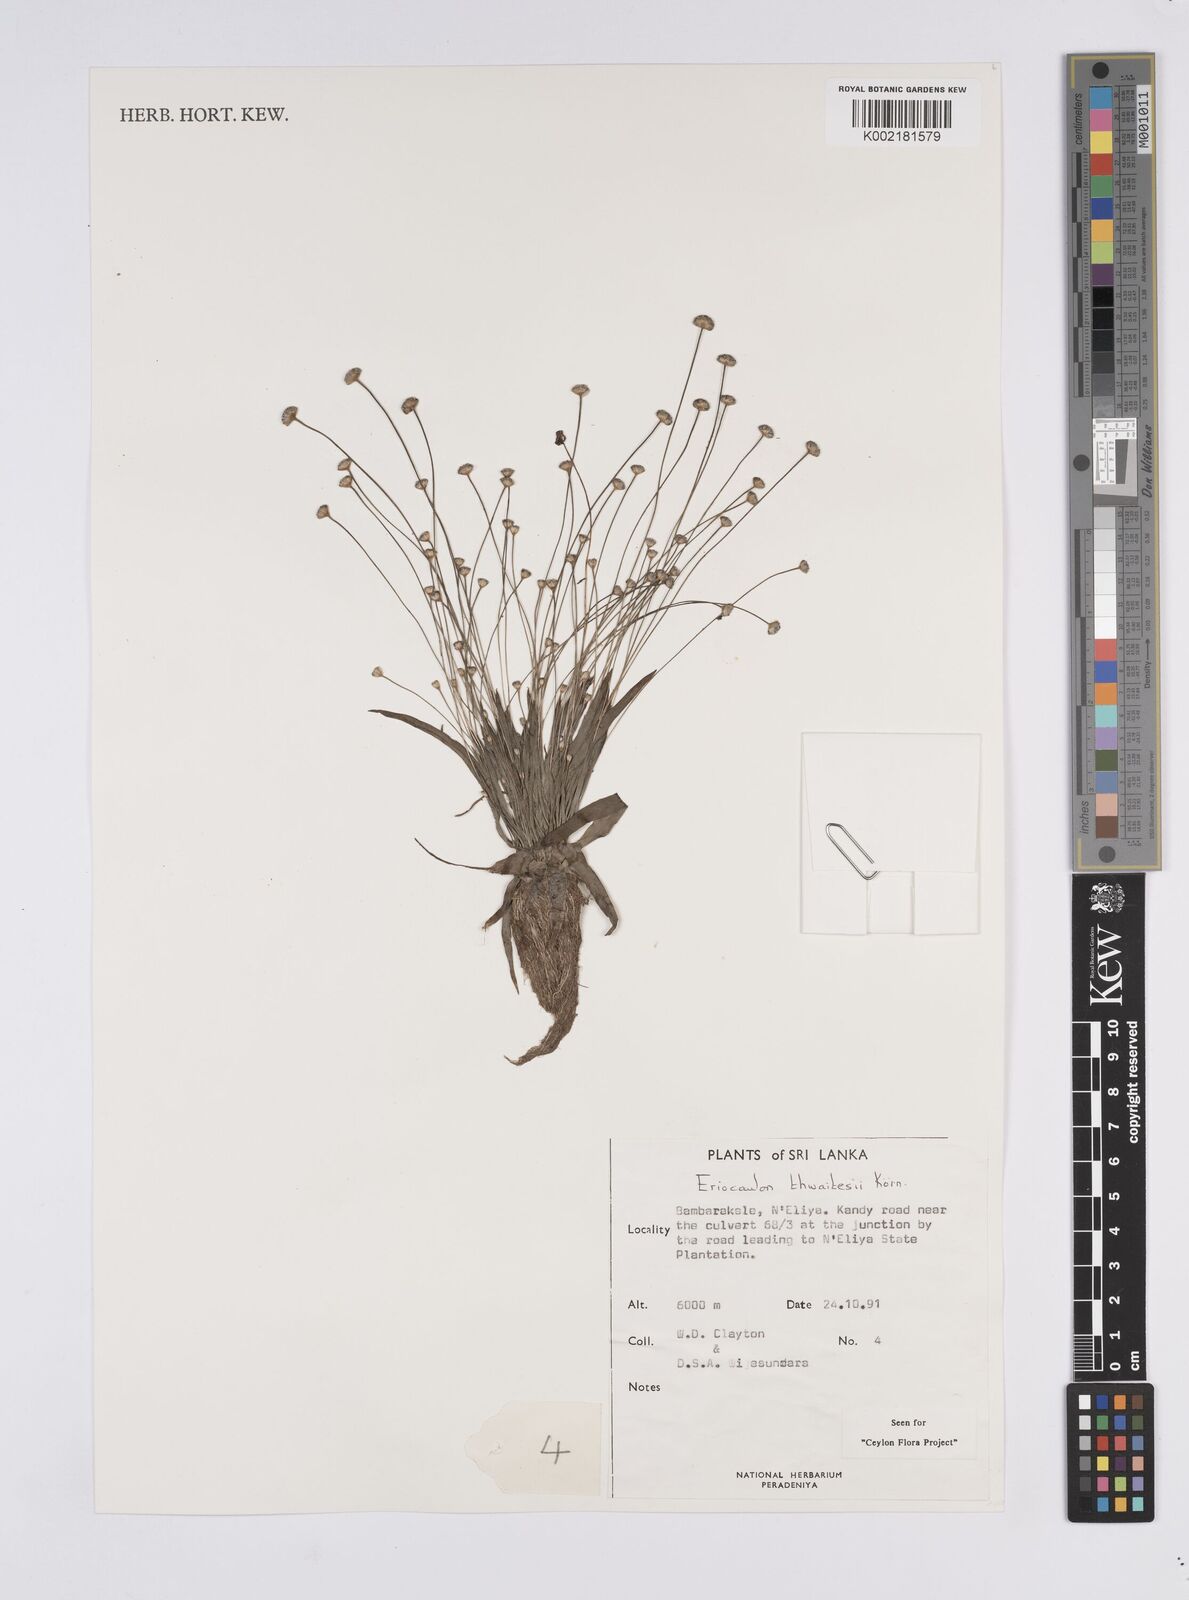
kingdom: Plantae
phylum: Tracheophyta
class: Liliopsida
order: Poales
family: Eriocaulaceae
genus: Eriocaulon
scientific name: Eriocaulon thwaitesii
